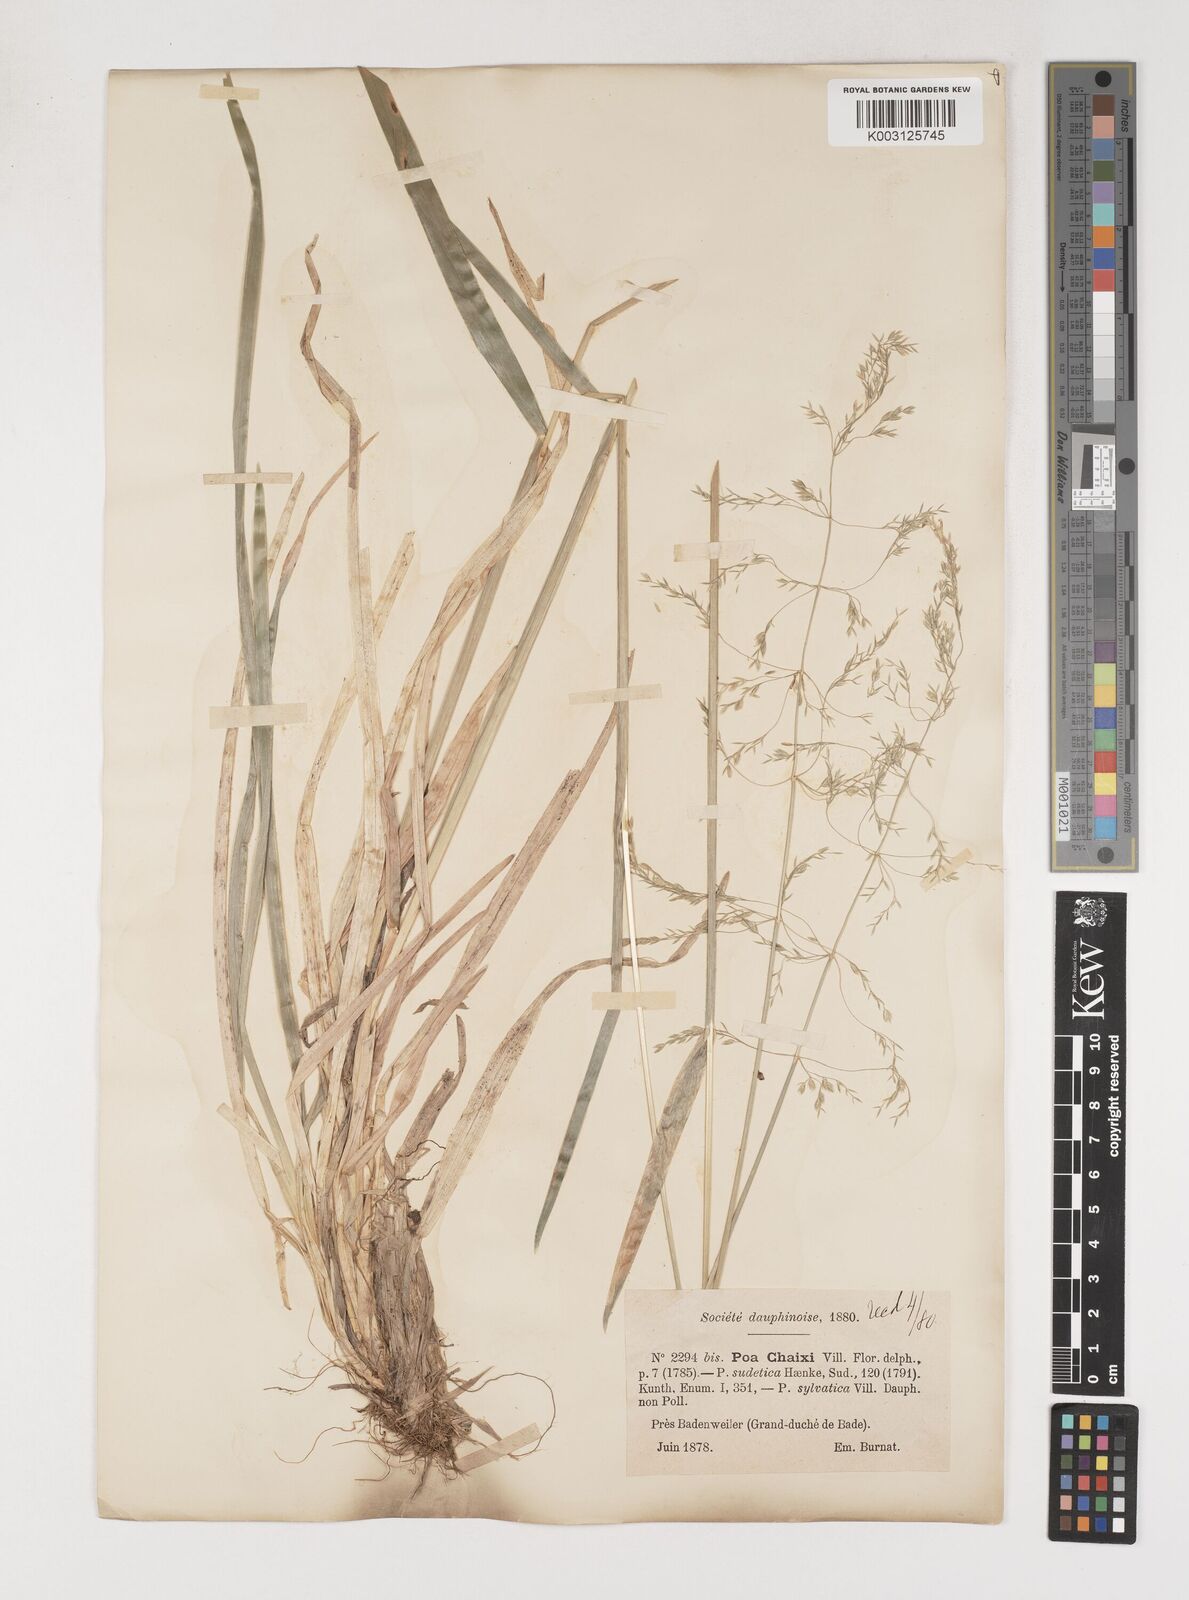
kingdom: Plantae
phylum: Tracheophyta
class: Liliopsida
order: Poales
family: Poaceae
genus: Poa
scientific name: Poa chaixii
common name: Broad-leaved meadow-grass
